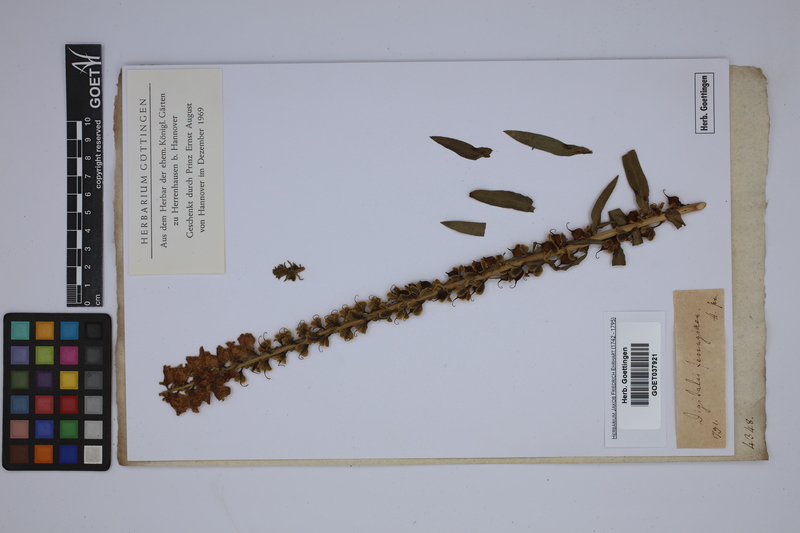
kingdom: Plantae
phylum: Tracheophyta
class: Magnoliopsida
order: Lamiales
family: Plantaginaceae
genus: Digitalis
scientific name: Digitalis ferruginea
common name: Rusty foxglove
